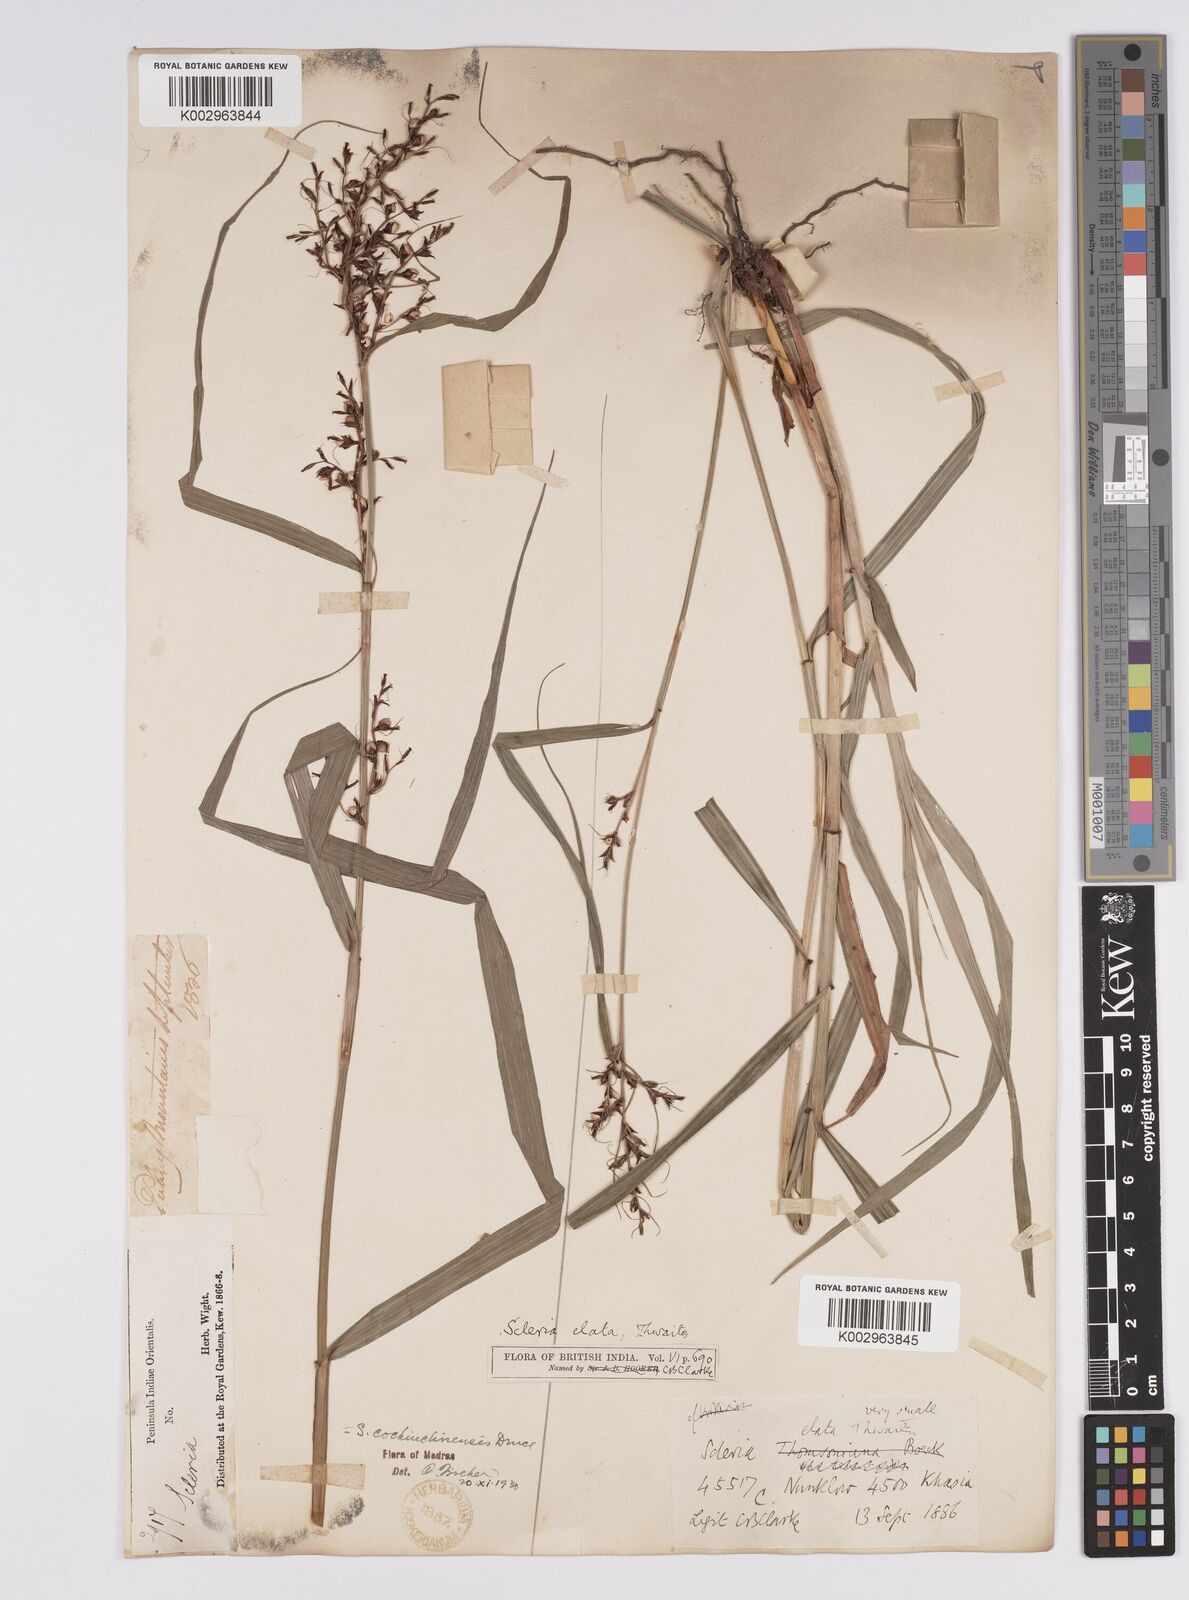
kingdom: Plantae
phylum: Tracheophyta
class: Liliopsida
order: Poales
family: Cyperaceae
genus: Scleria
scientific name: Scleria terrestris
